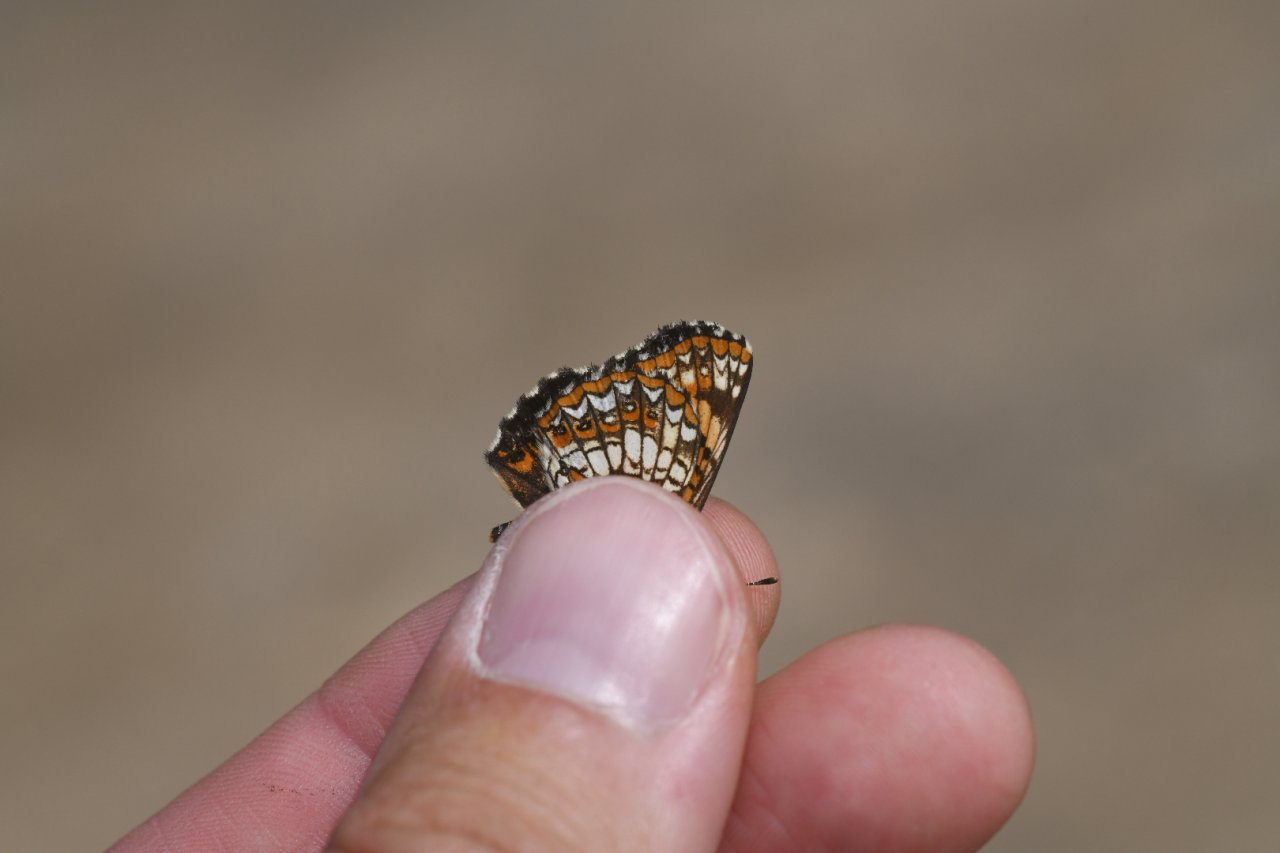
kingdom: Animalia
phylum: Arthropoda
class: Insecta
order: Lepidoptera
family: Nymphalidae
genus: Chlosyne
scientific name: Chlosyne harrisii
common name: Harris's Checkerspot
